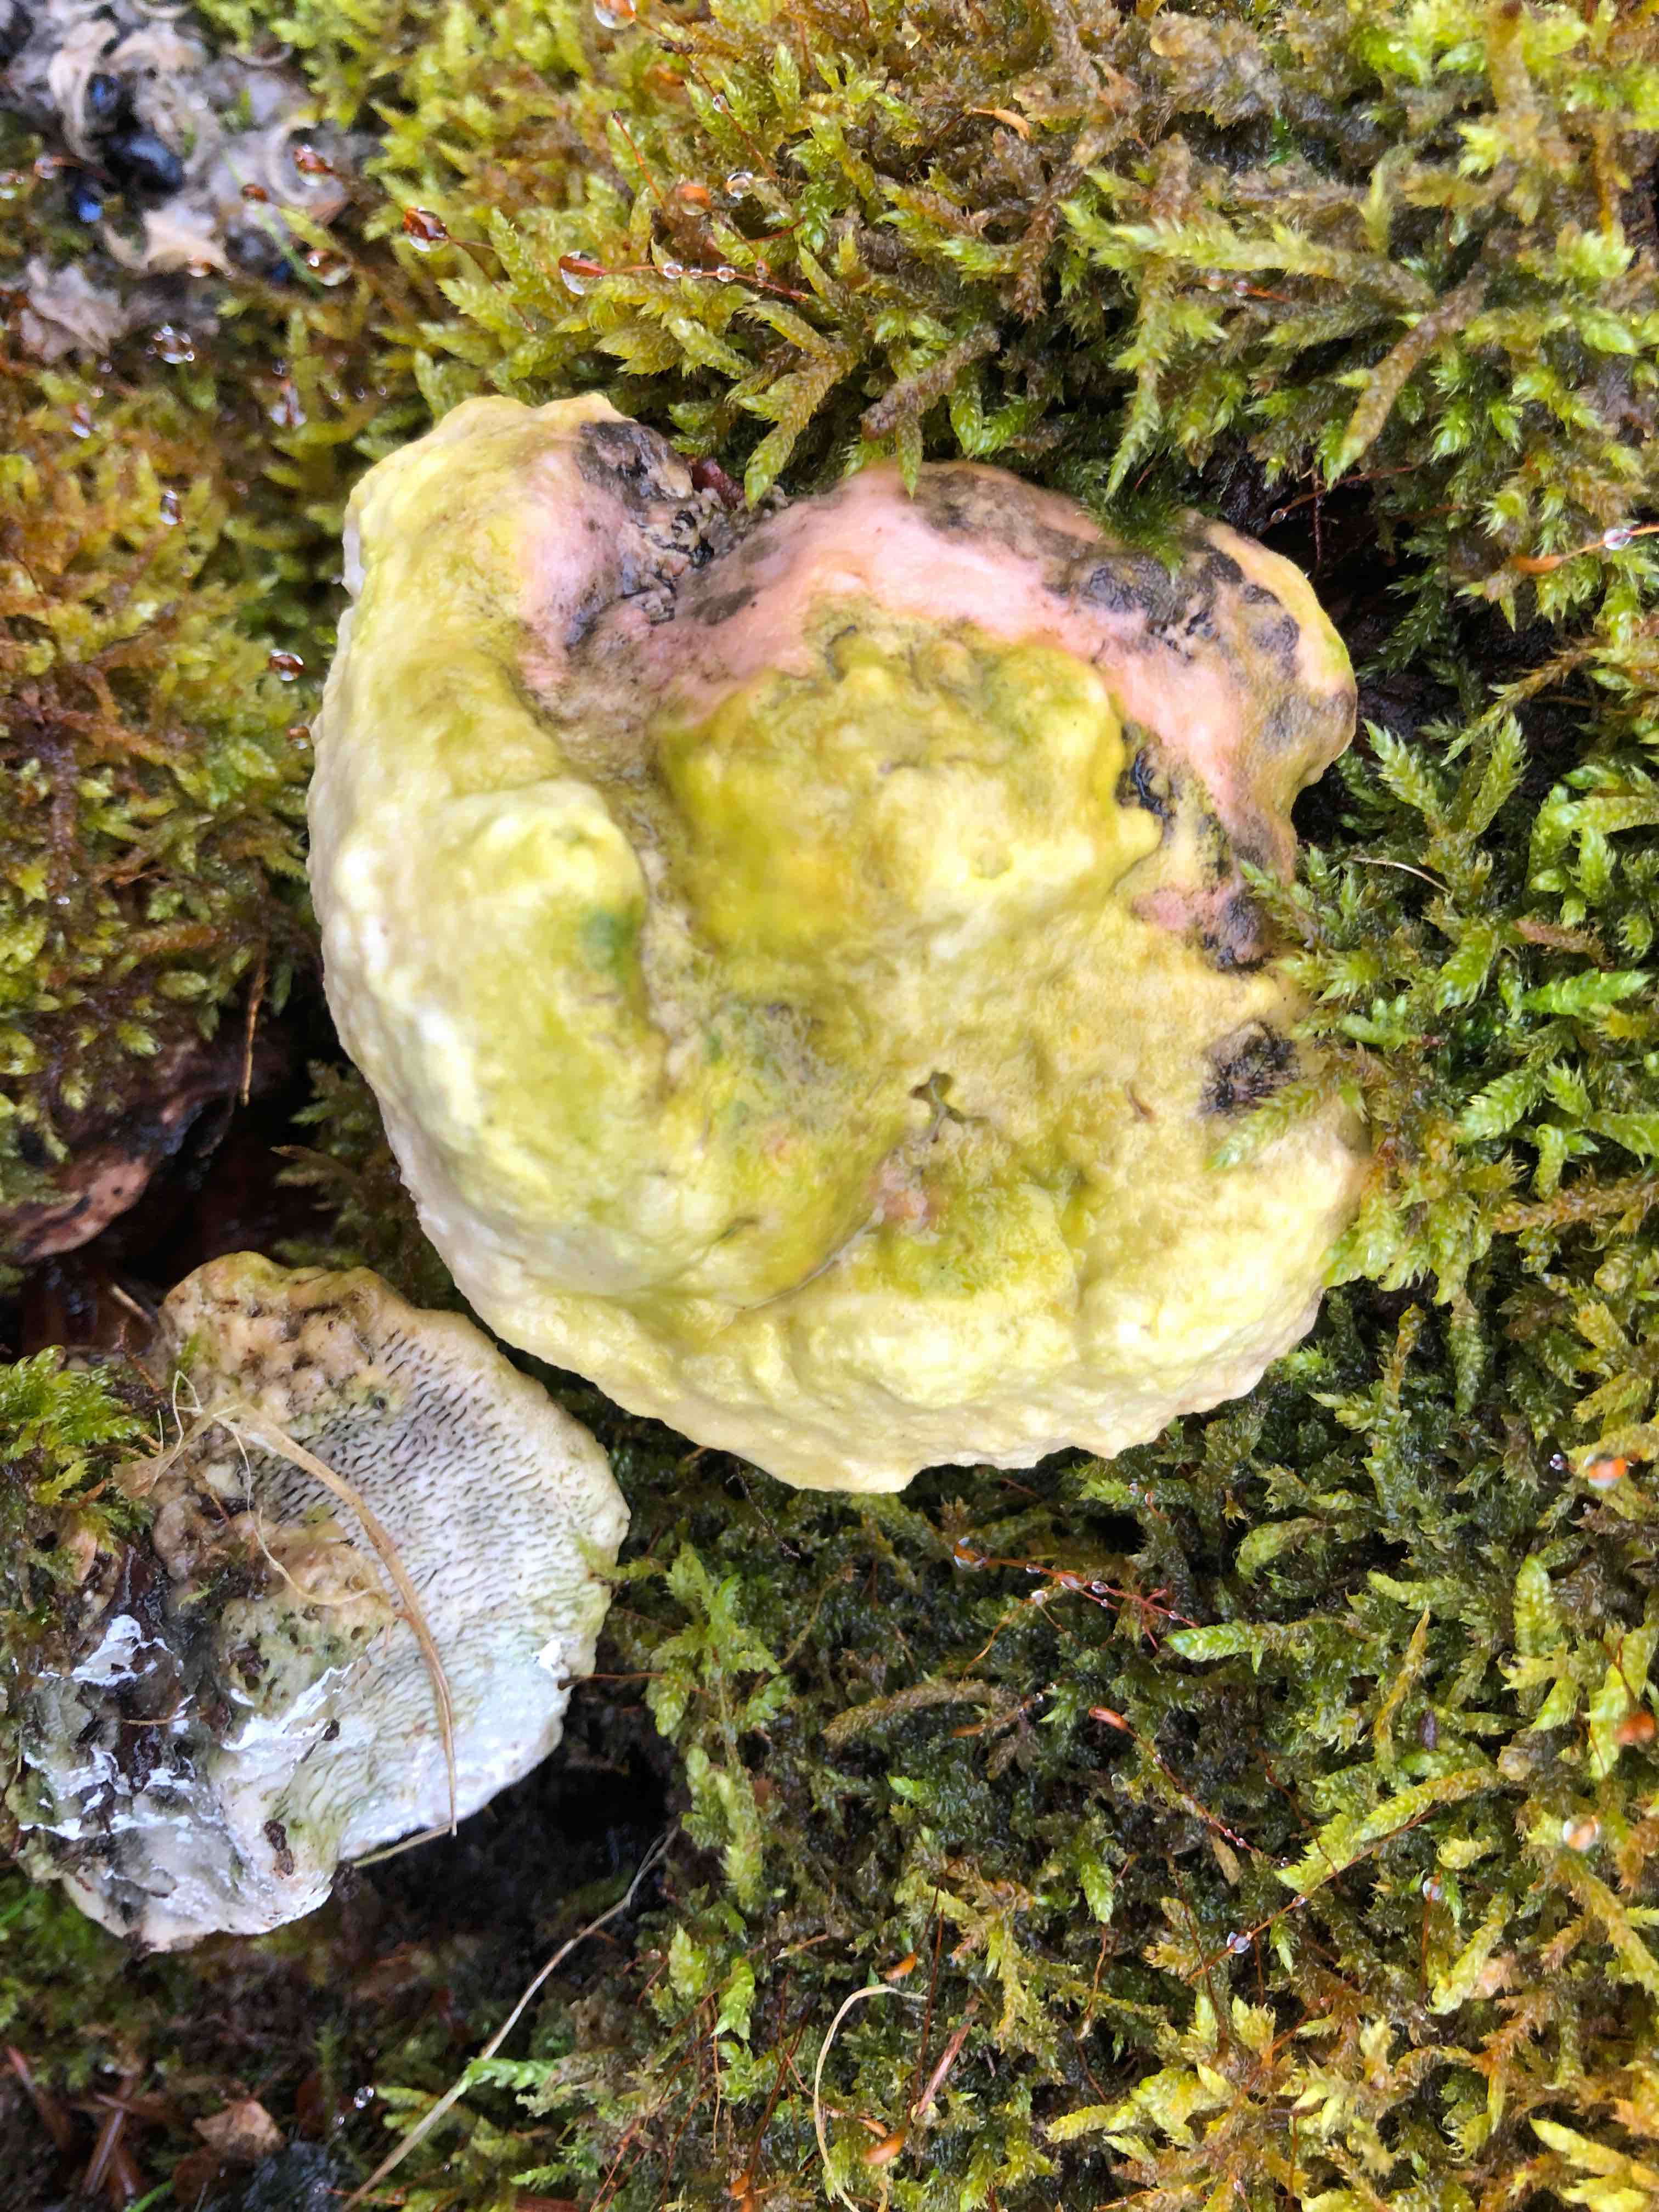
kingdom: Fungi
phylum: Basidiomycota
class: Agaricomycetes
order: Polyporales
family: Polyporaceae
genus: Trametes
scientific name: Trametes gibbosa
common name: puklet læderporesvamp
